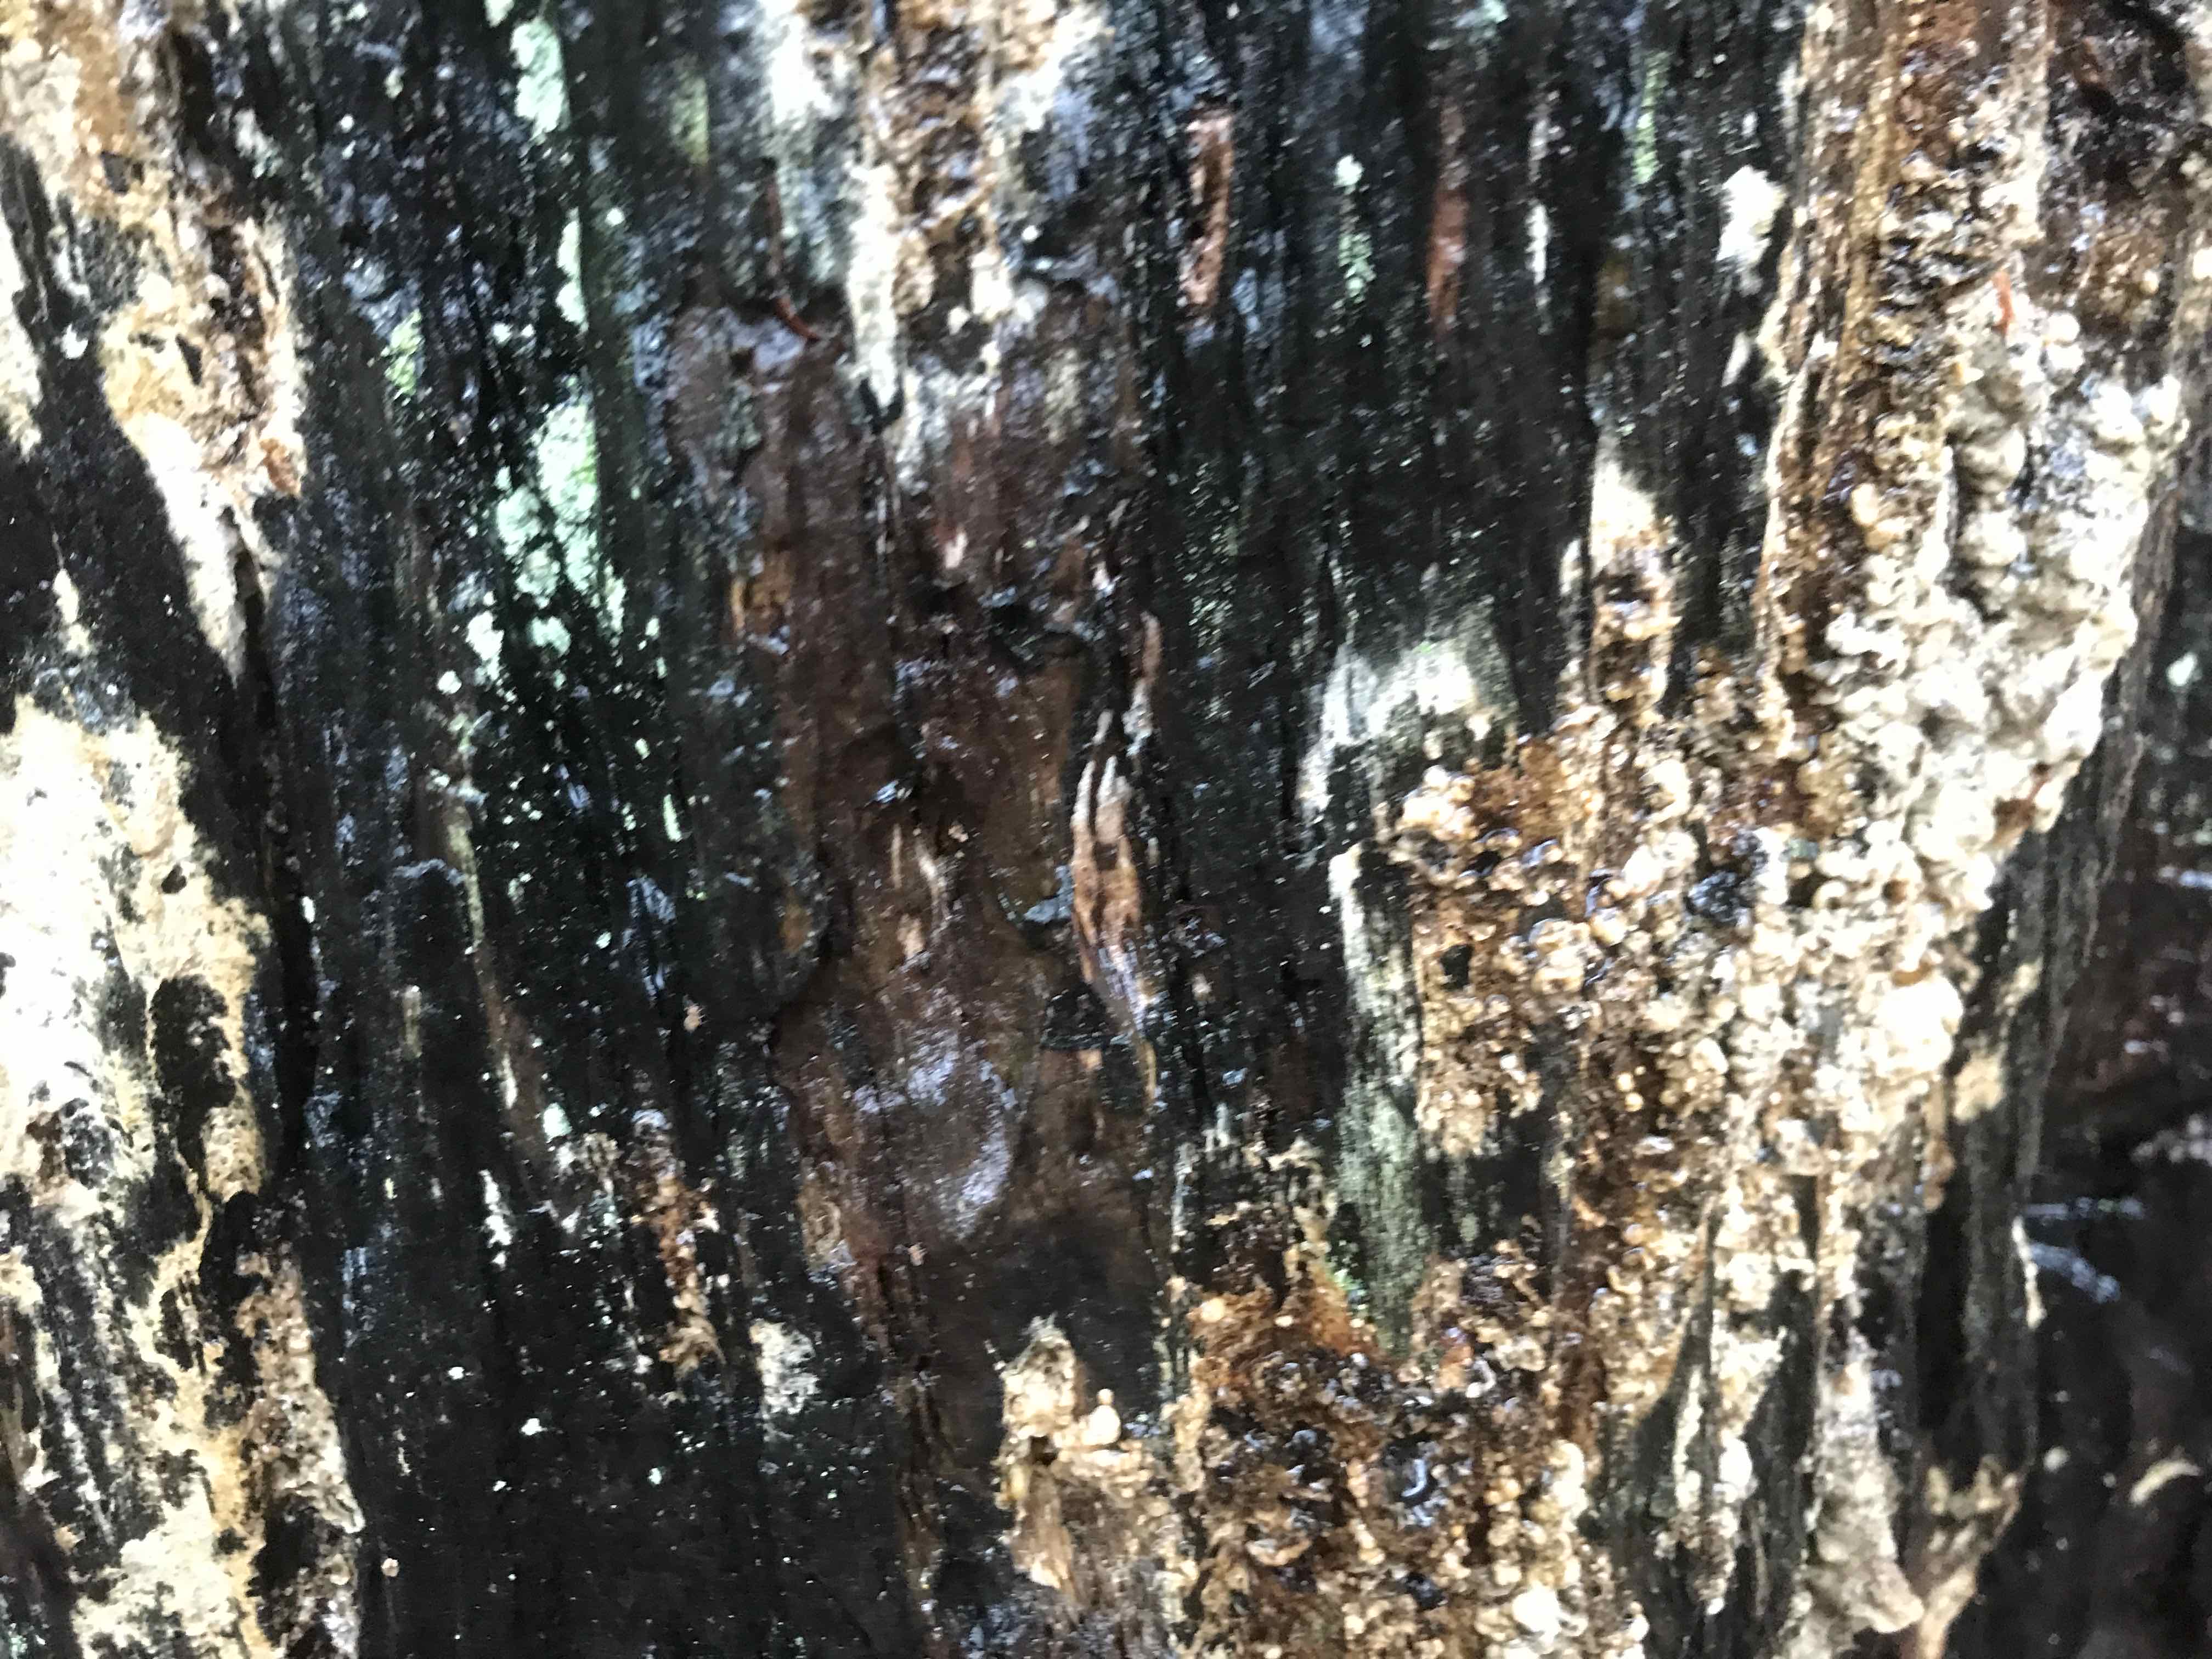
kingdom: Fungi
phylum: Basidiomycota
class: Agaricomycetes
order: Boletales
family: Coniophoraceae
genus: Coniophora
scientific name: Coniophora puteana
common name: gul tømmersvamp
